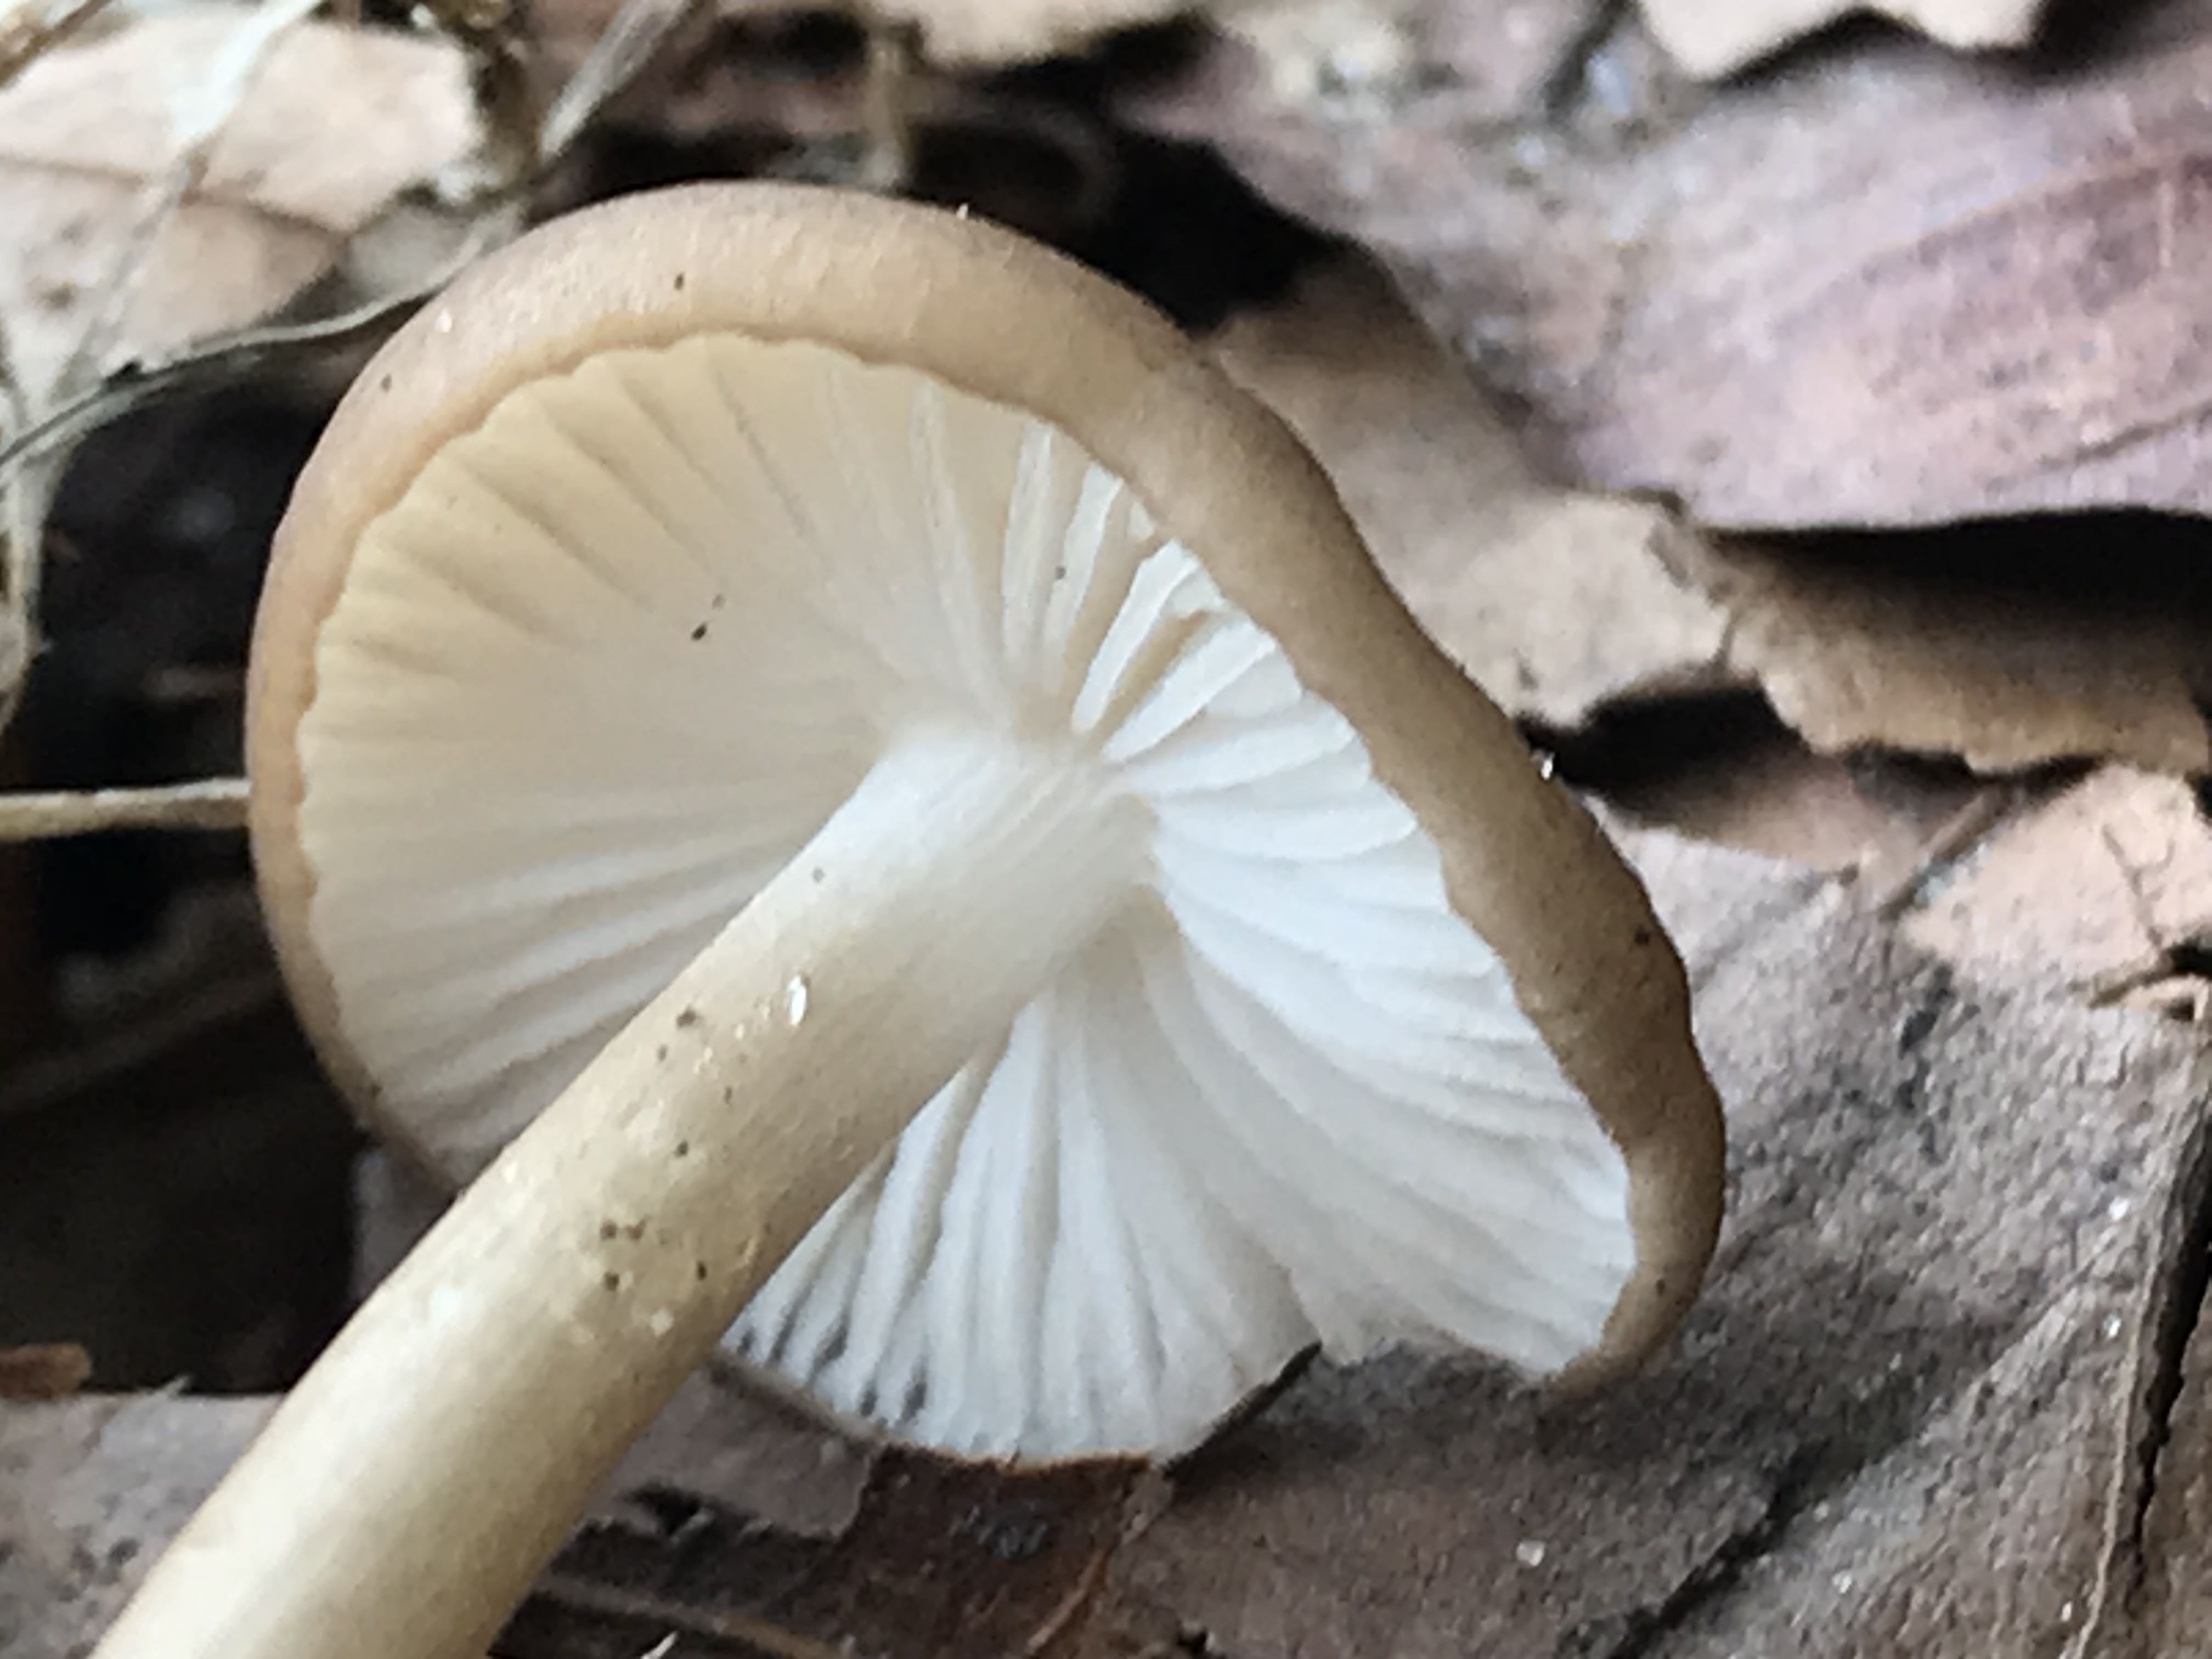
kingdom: Fungi
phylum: Basidiomycota
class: Agaricomycetes
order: Agaricales
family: Physalacriaceae
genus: Hymenopellis
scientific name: Hymenopellis radicata
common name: almindelig pælerodshat
